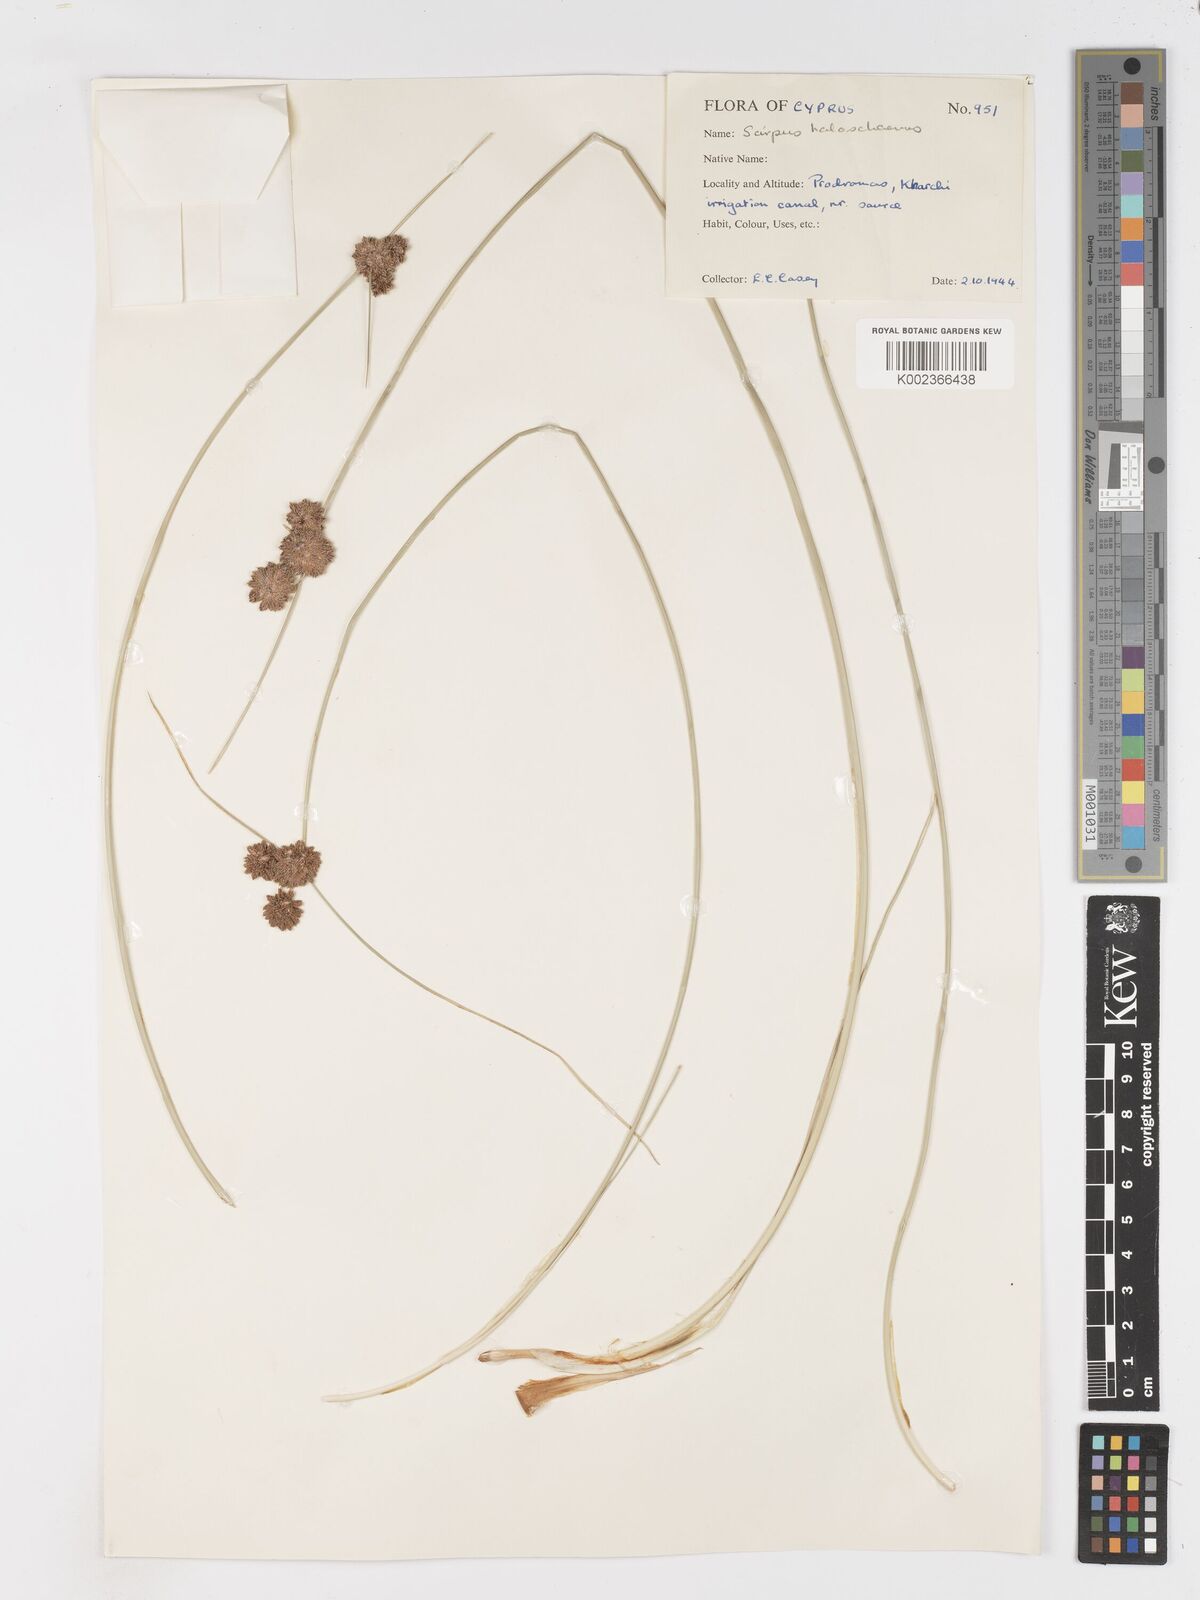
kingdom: Plantae
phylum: Tracheophyta
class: Liliopsida
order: Poales
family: Cyperaceae
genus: Scirpoides
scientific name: Scirpoides holoschoenus
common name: Round-headed club-rush
